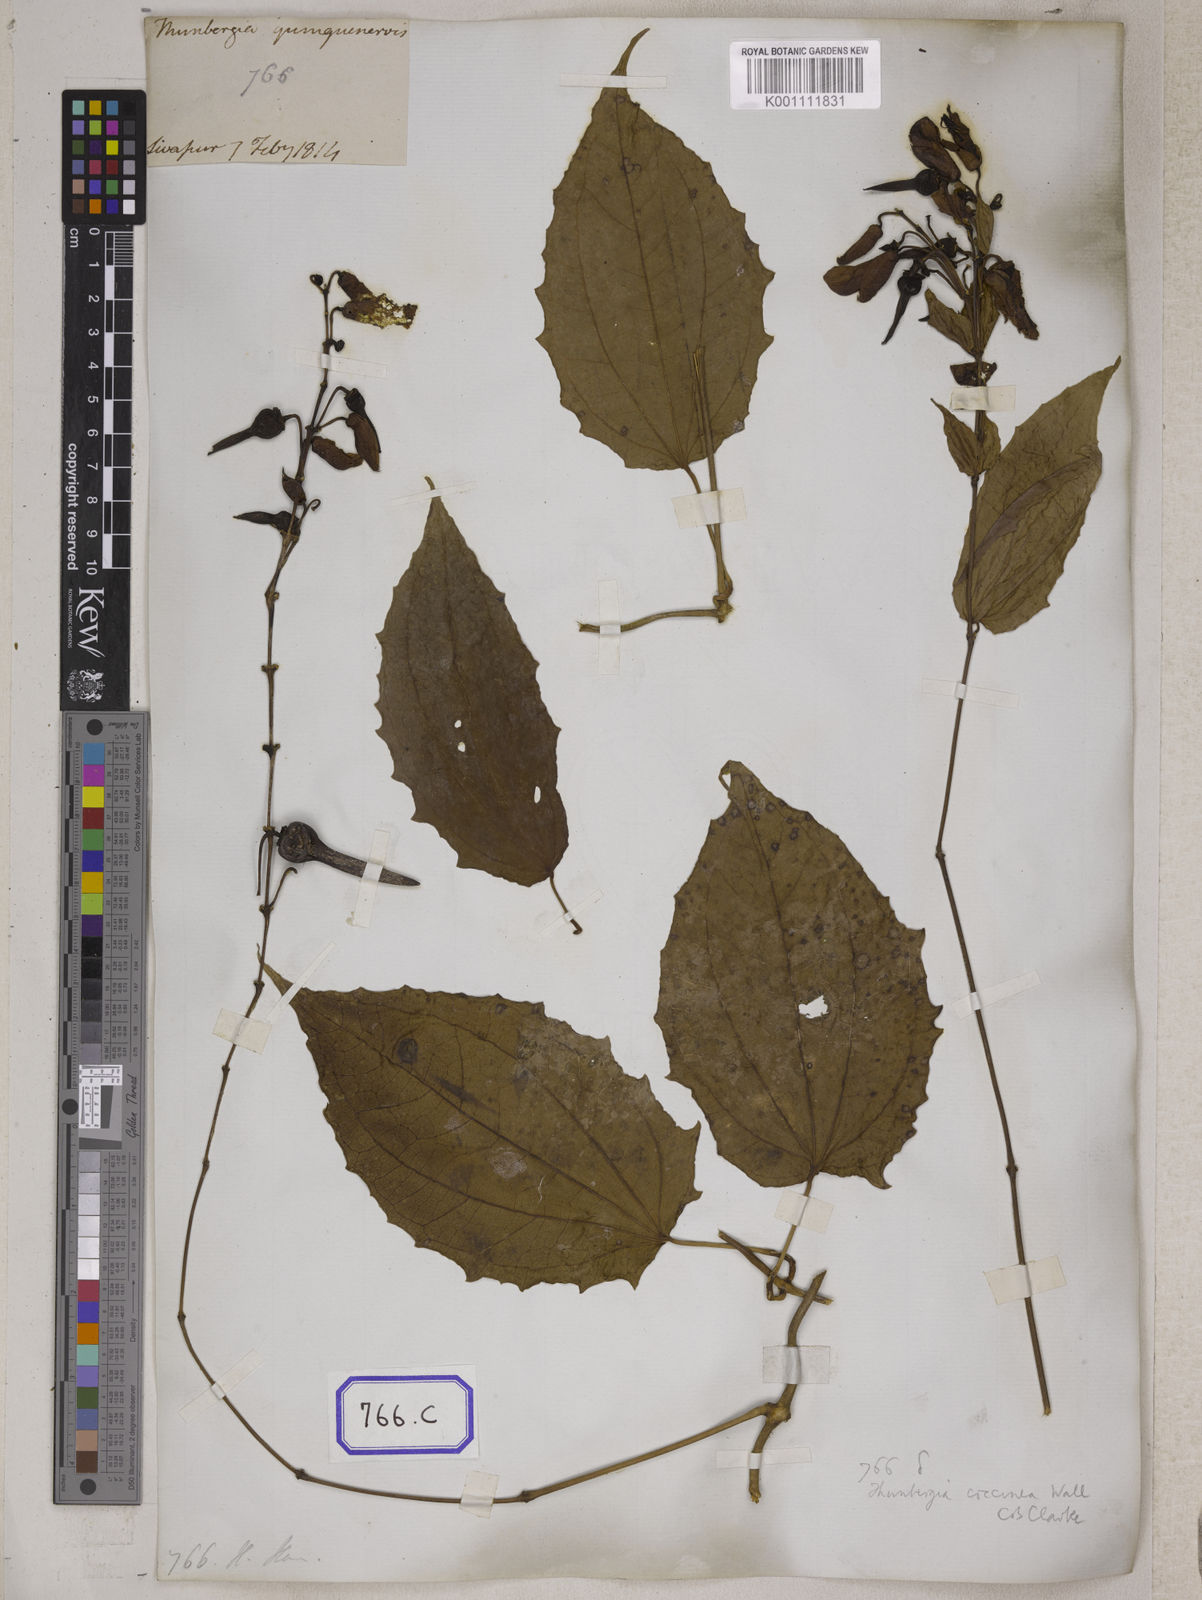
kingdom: Plantae
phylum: Tracheophyta
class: Magnoliopsida
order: Lamiales
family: Acanthaceae
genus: Thunbergia
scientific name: Thunbergia
